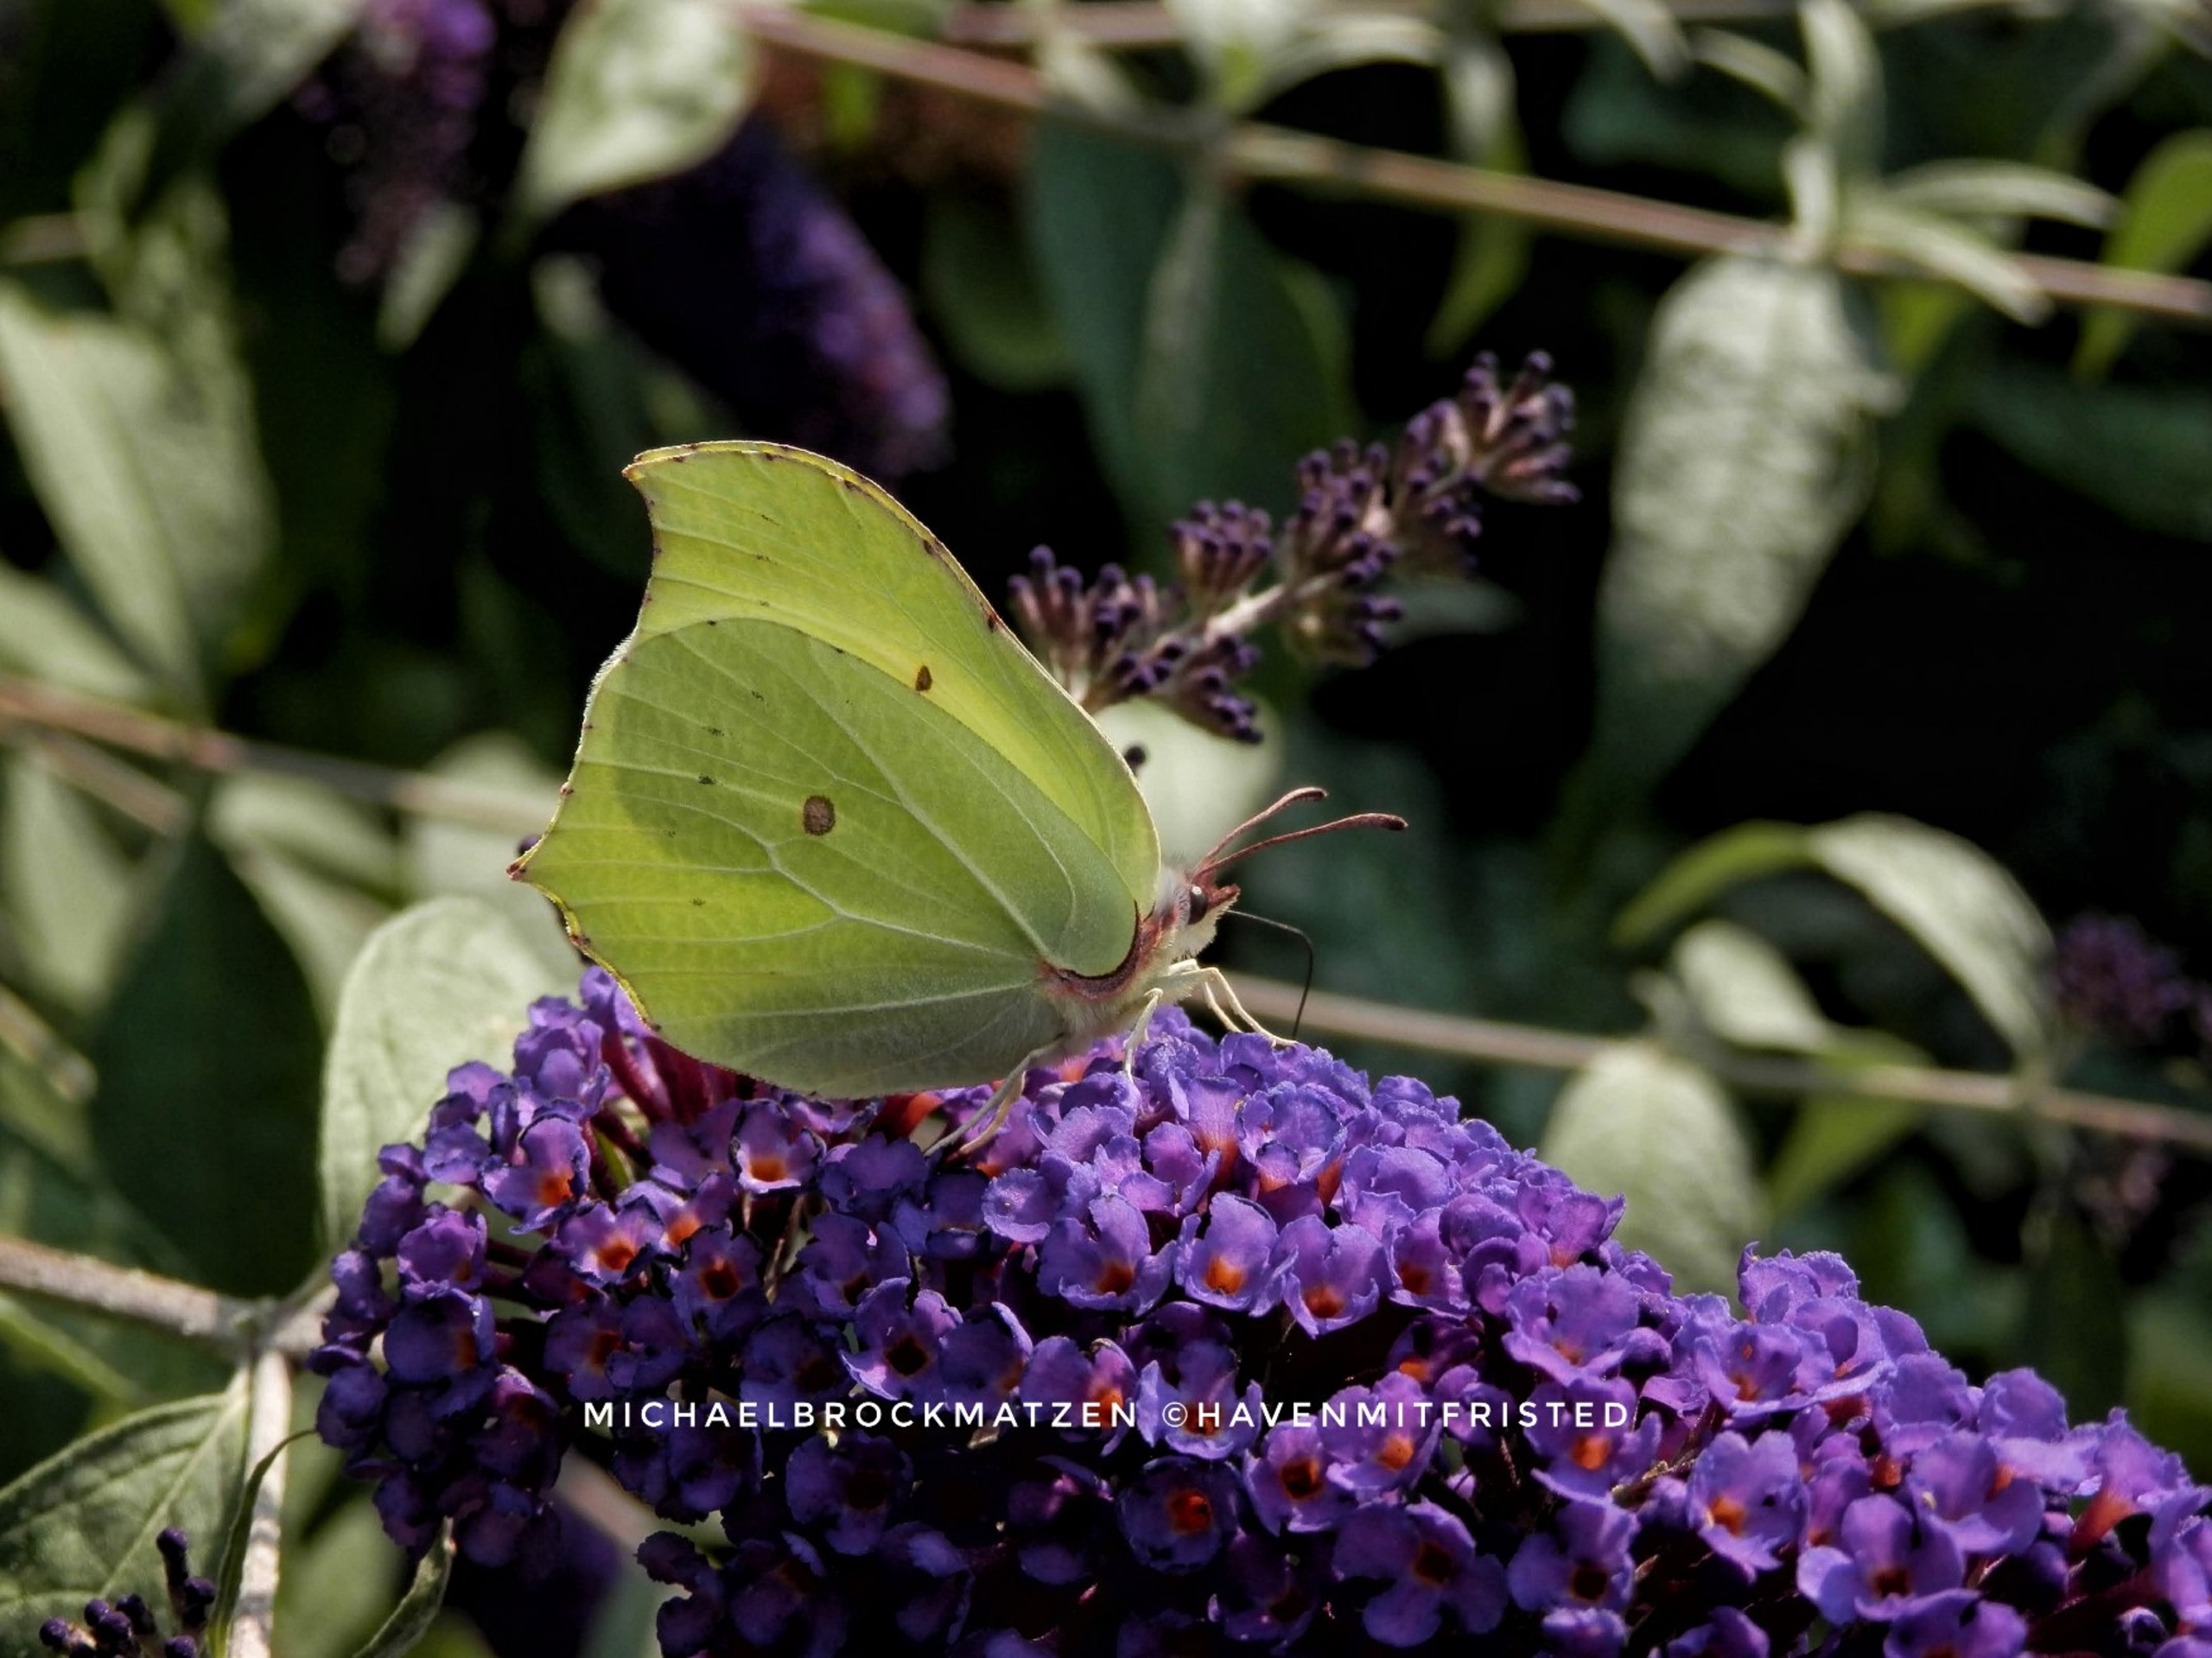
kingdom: Animalia
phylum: Arthropoda
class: Insecta
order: Lepidoptera
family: Pieridae
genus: Gonepteryx
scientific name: Gonepteryx rhamni
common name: Citronsommerfugl
